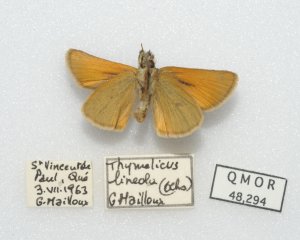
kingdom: Animalia
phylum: Arthropoda
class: Insecta
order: Lepidoptera
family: Hesperiidae
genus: Thymelicus
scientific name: Thymelicus lineola
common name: European Skipper
